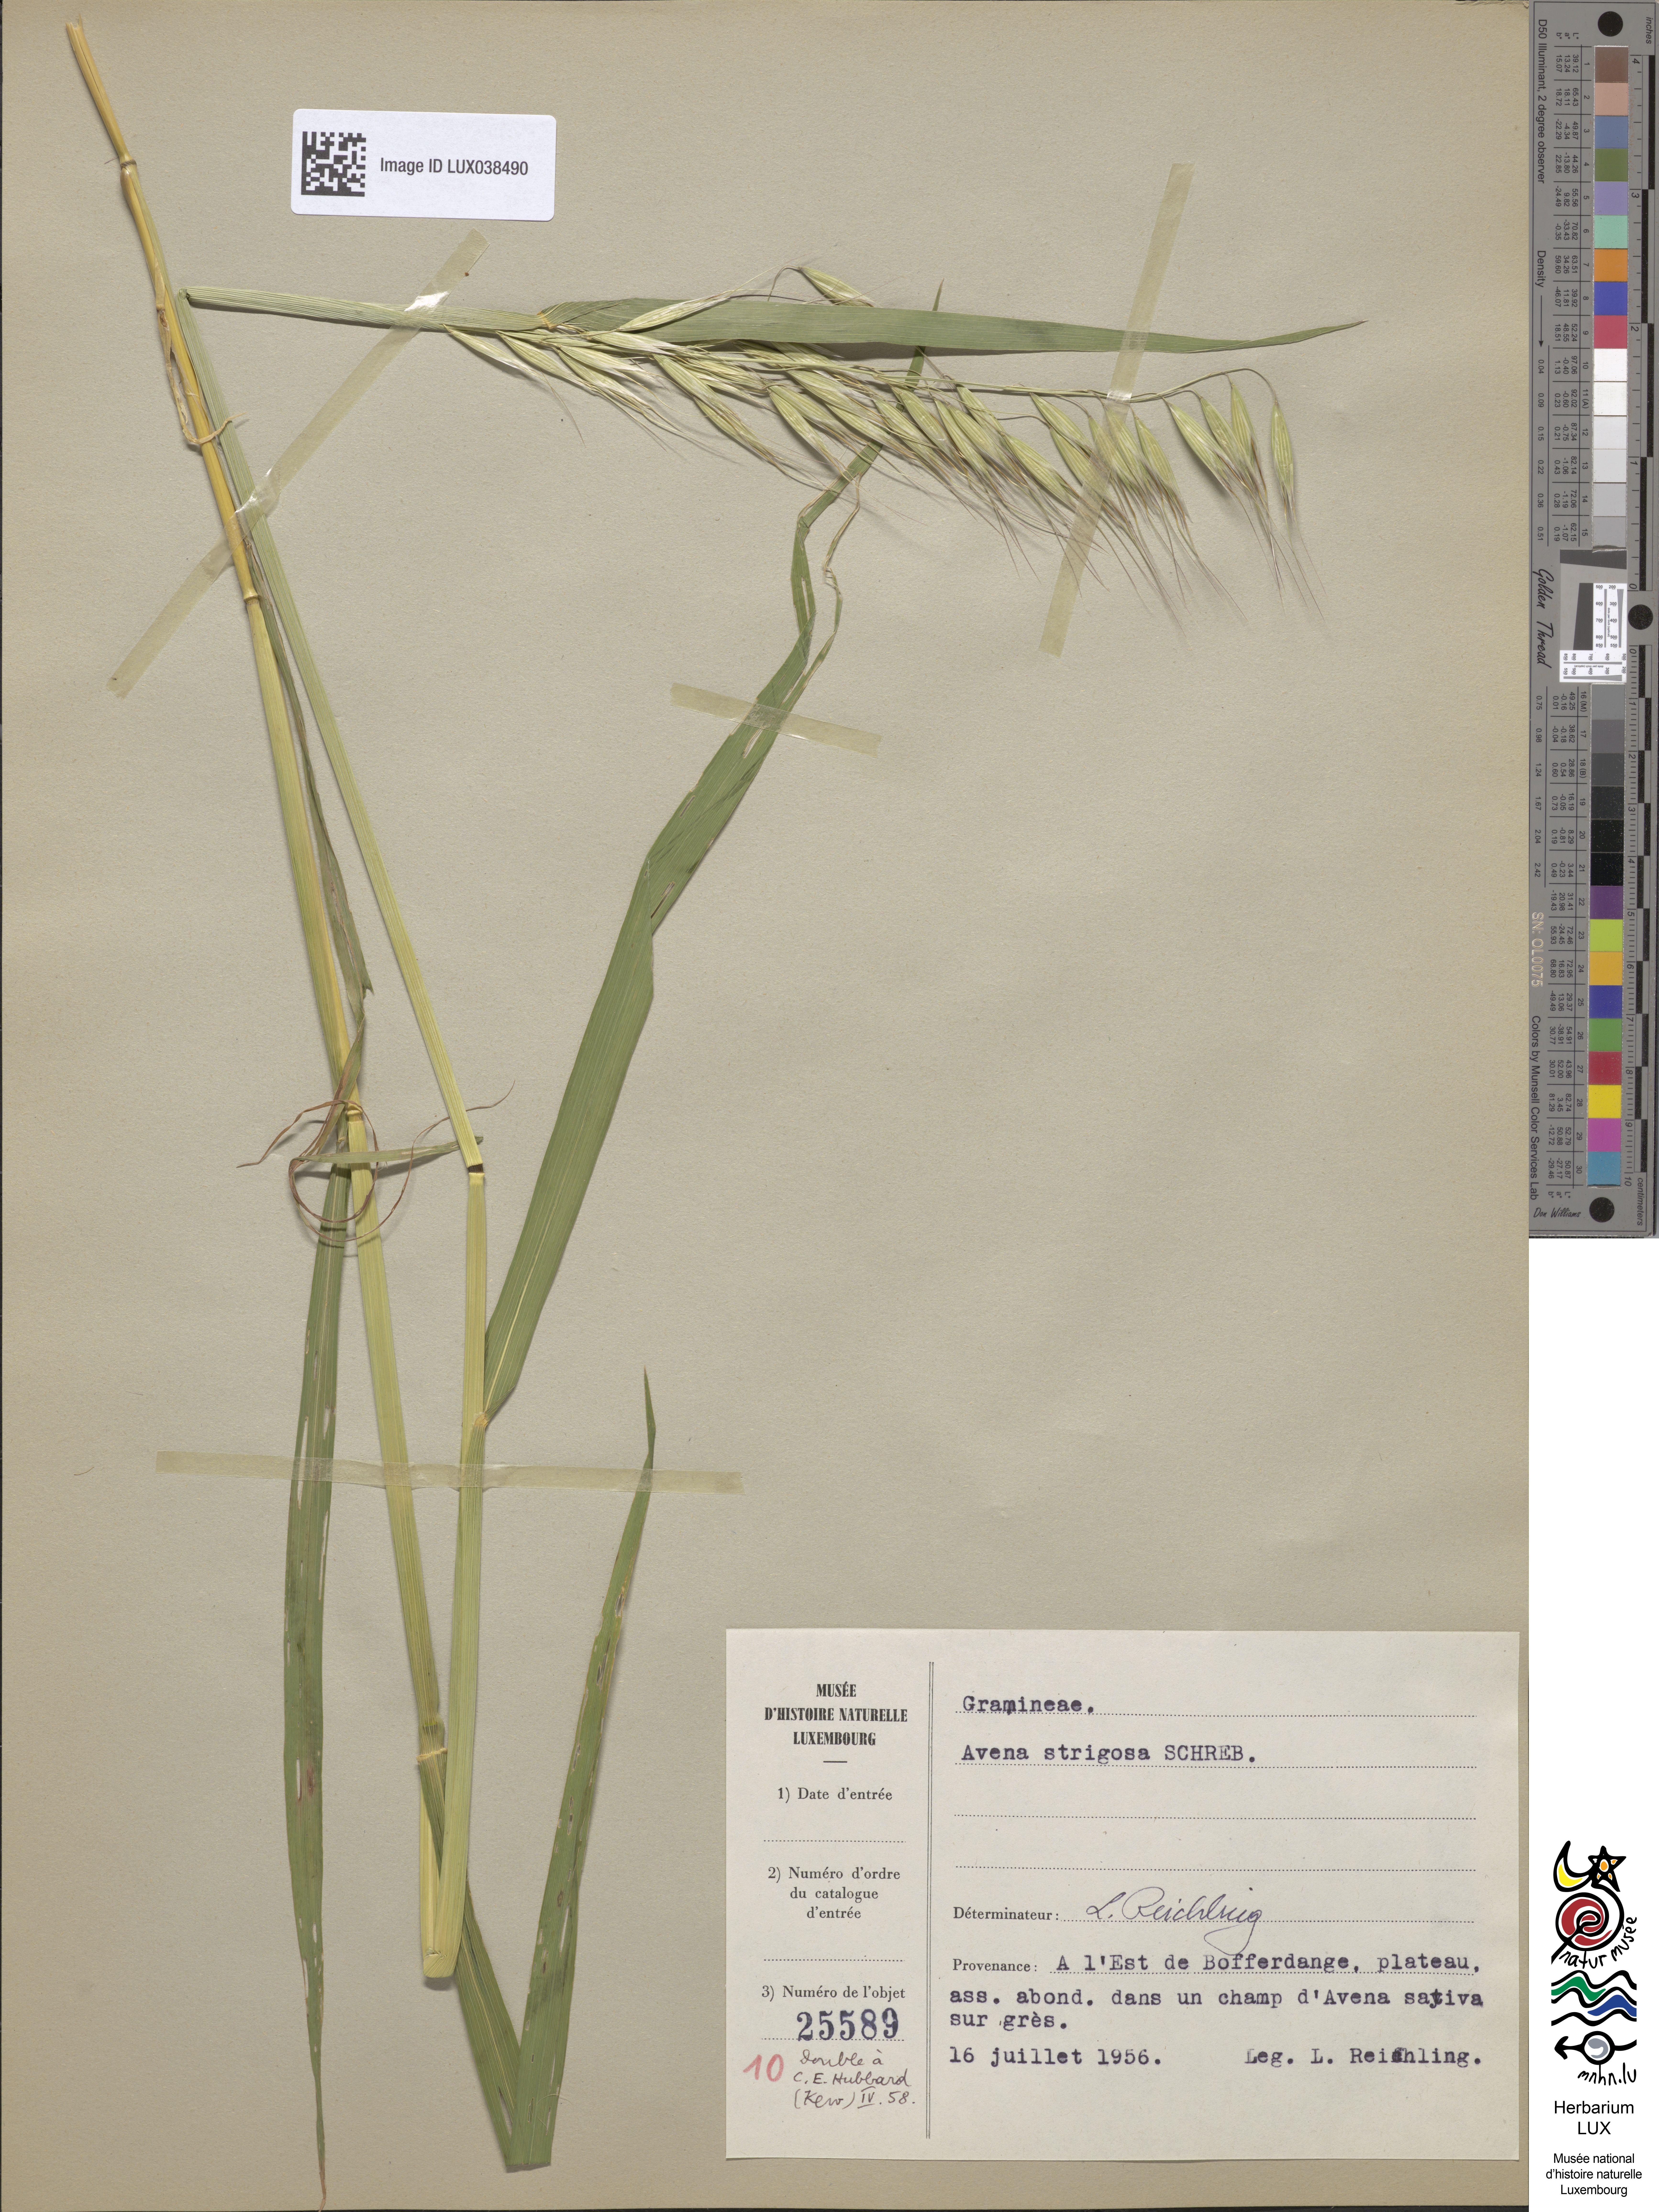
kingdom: Plantae
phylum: Tracheophyta
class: Liliopsida
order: Poales
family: Poaceae
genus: Avena
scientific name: Avena strigosa
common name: Bristle oat
